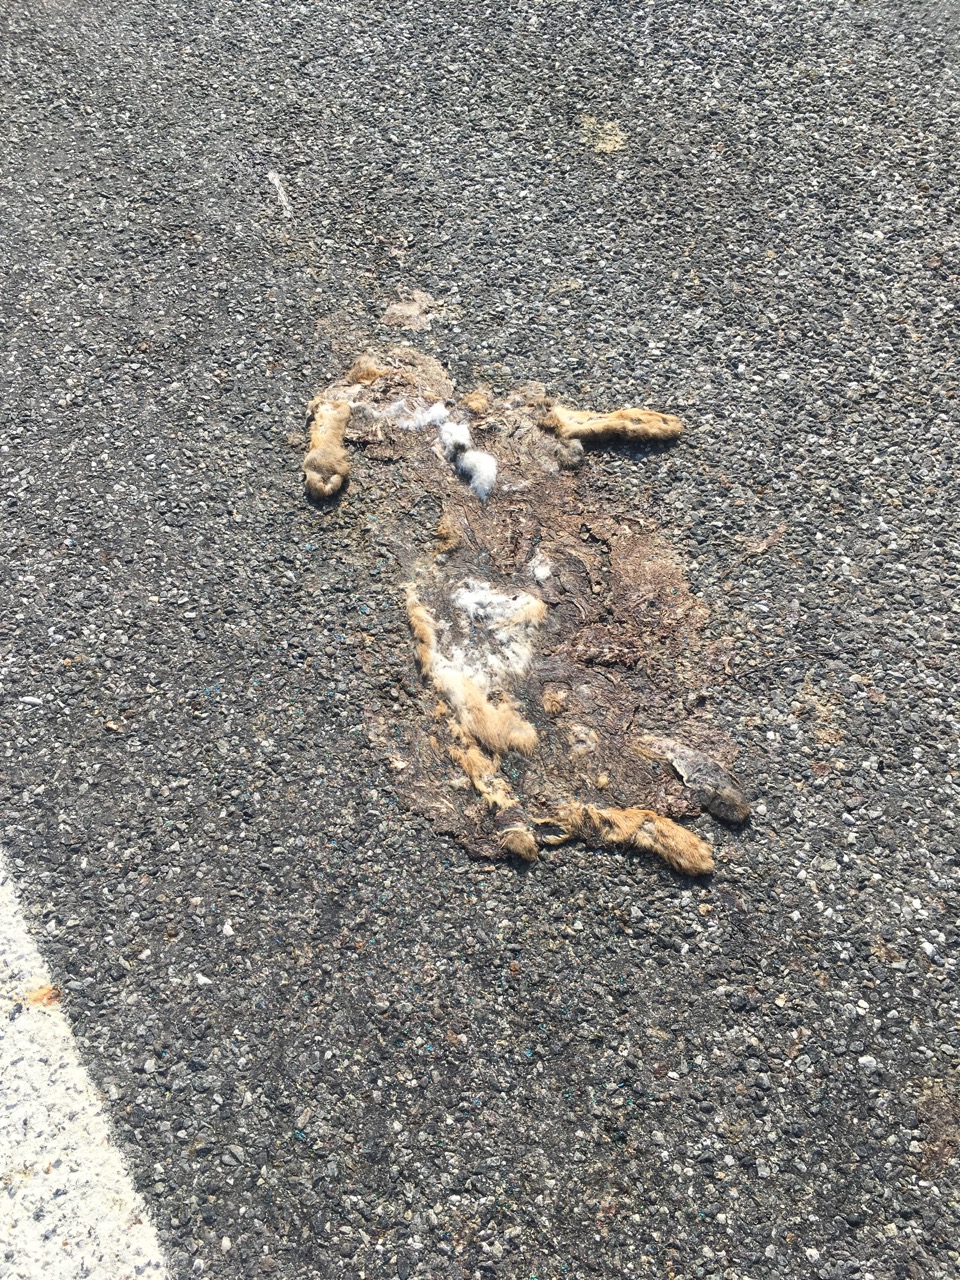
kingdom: Animalia
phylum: Chordata
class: Mammalia
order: Lagomorpha
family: Leporidae
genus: Lepus
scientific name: Lepus europaeus
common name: European hare
